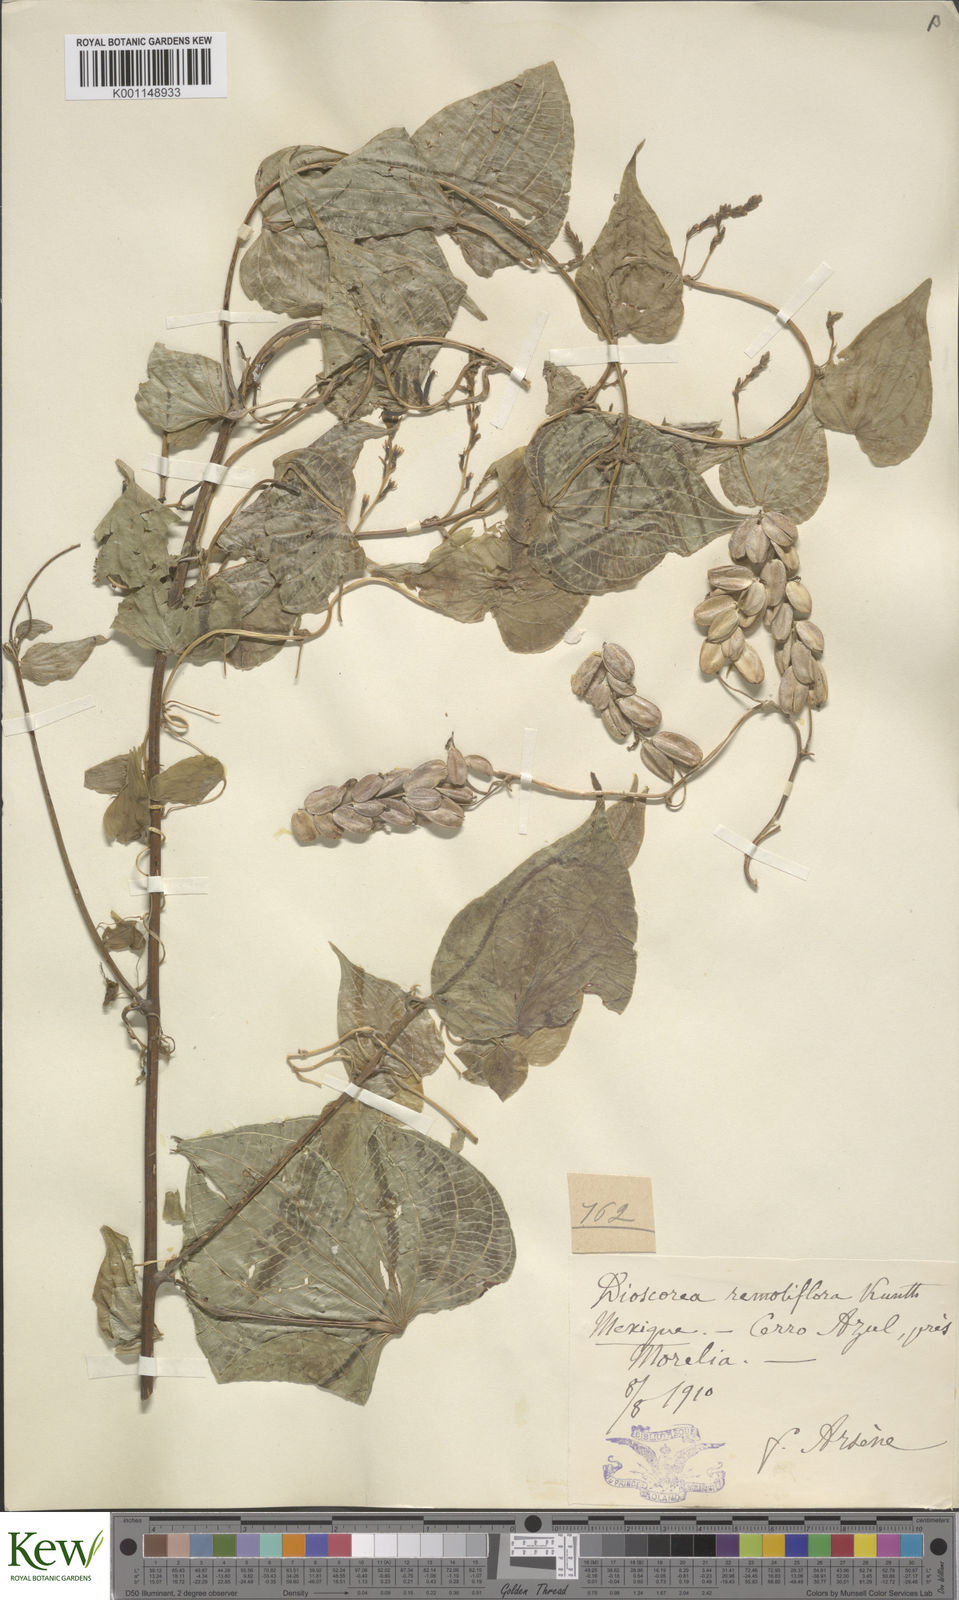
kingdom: Plantae
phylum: Tracheophyta
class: Liliopsida
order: Dioscoreales
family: Dioscoreaceae
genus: Dioscorea
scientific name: Dioscorea remotiflora
